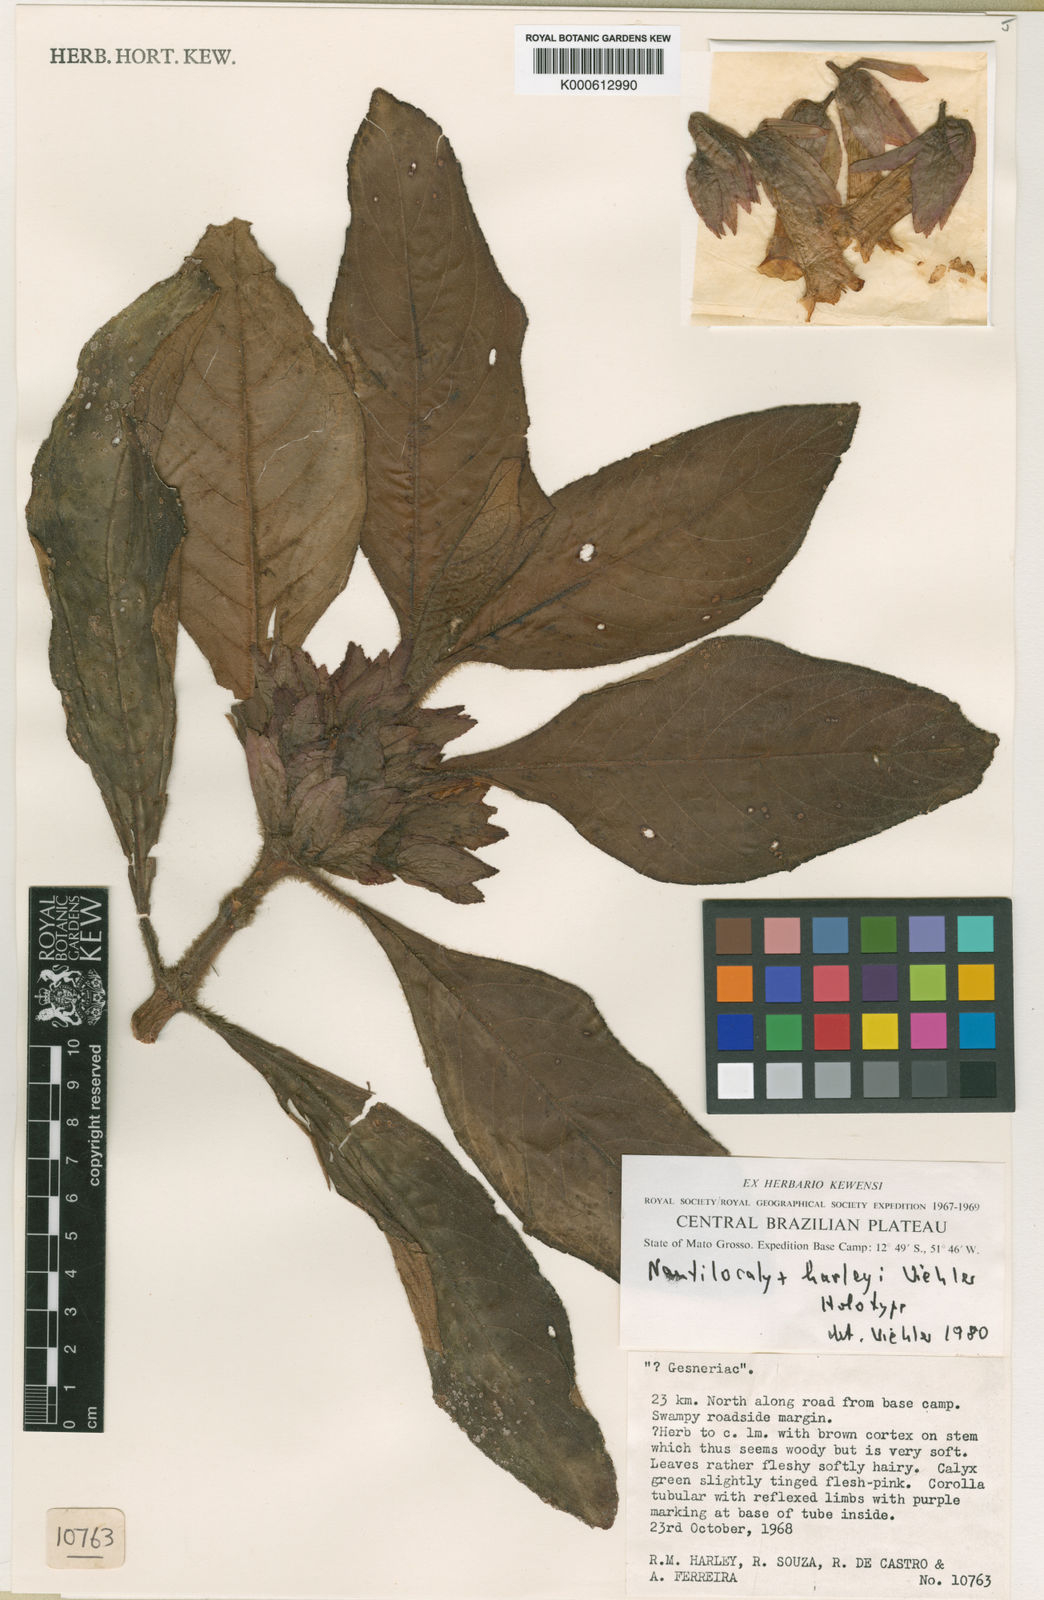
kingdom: Plantae
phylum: Tracheophyta
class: Magnoliopsida
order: Lamiales
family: Gesneriaceae
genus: Nautilocalyx
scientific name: Nautilocalyx
